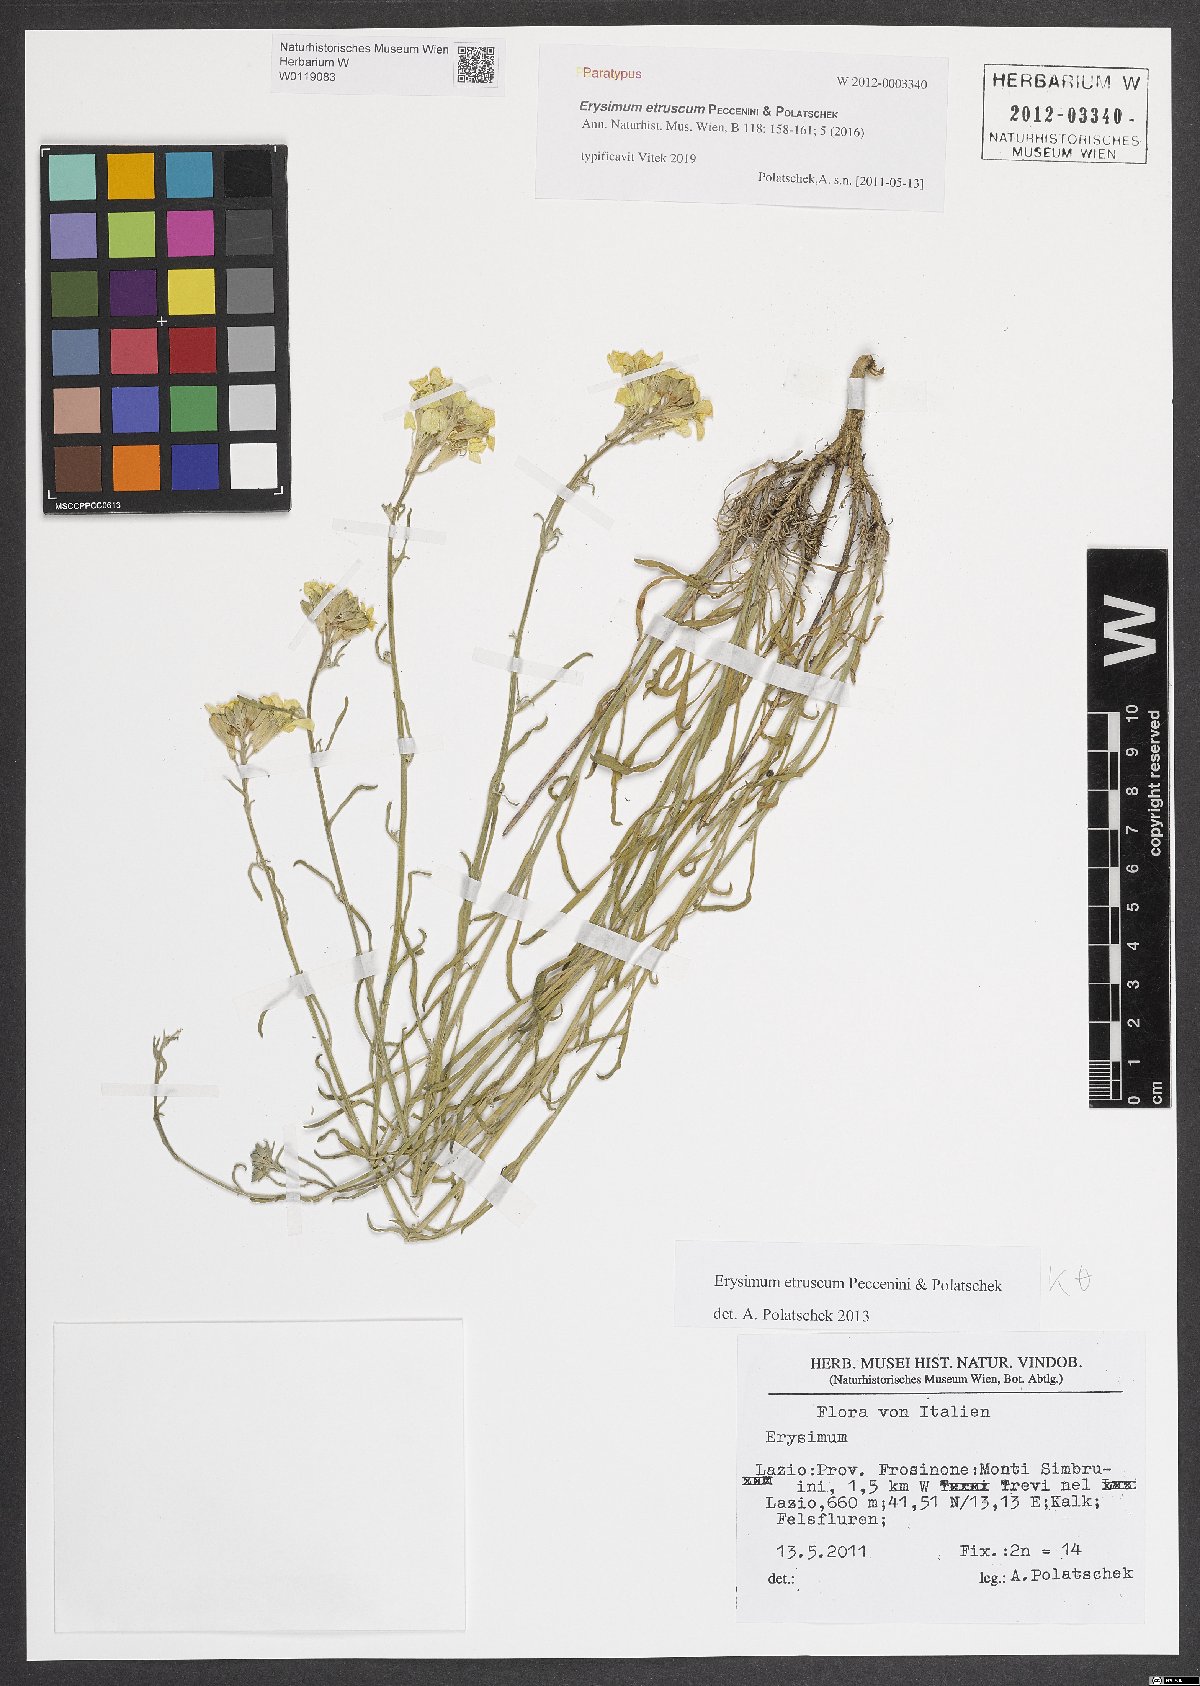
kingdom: Plantae
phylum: Tracheophyta
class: Magnoliopsida
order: Brassicales
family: Brassicaceae
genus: Erysimum
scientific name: Erysimum pseudorhaeticum
